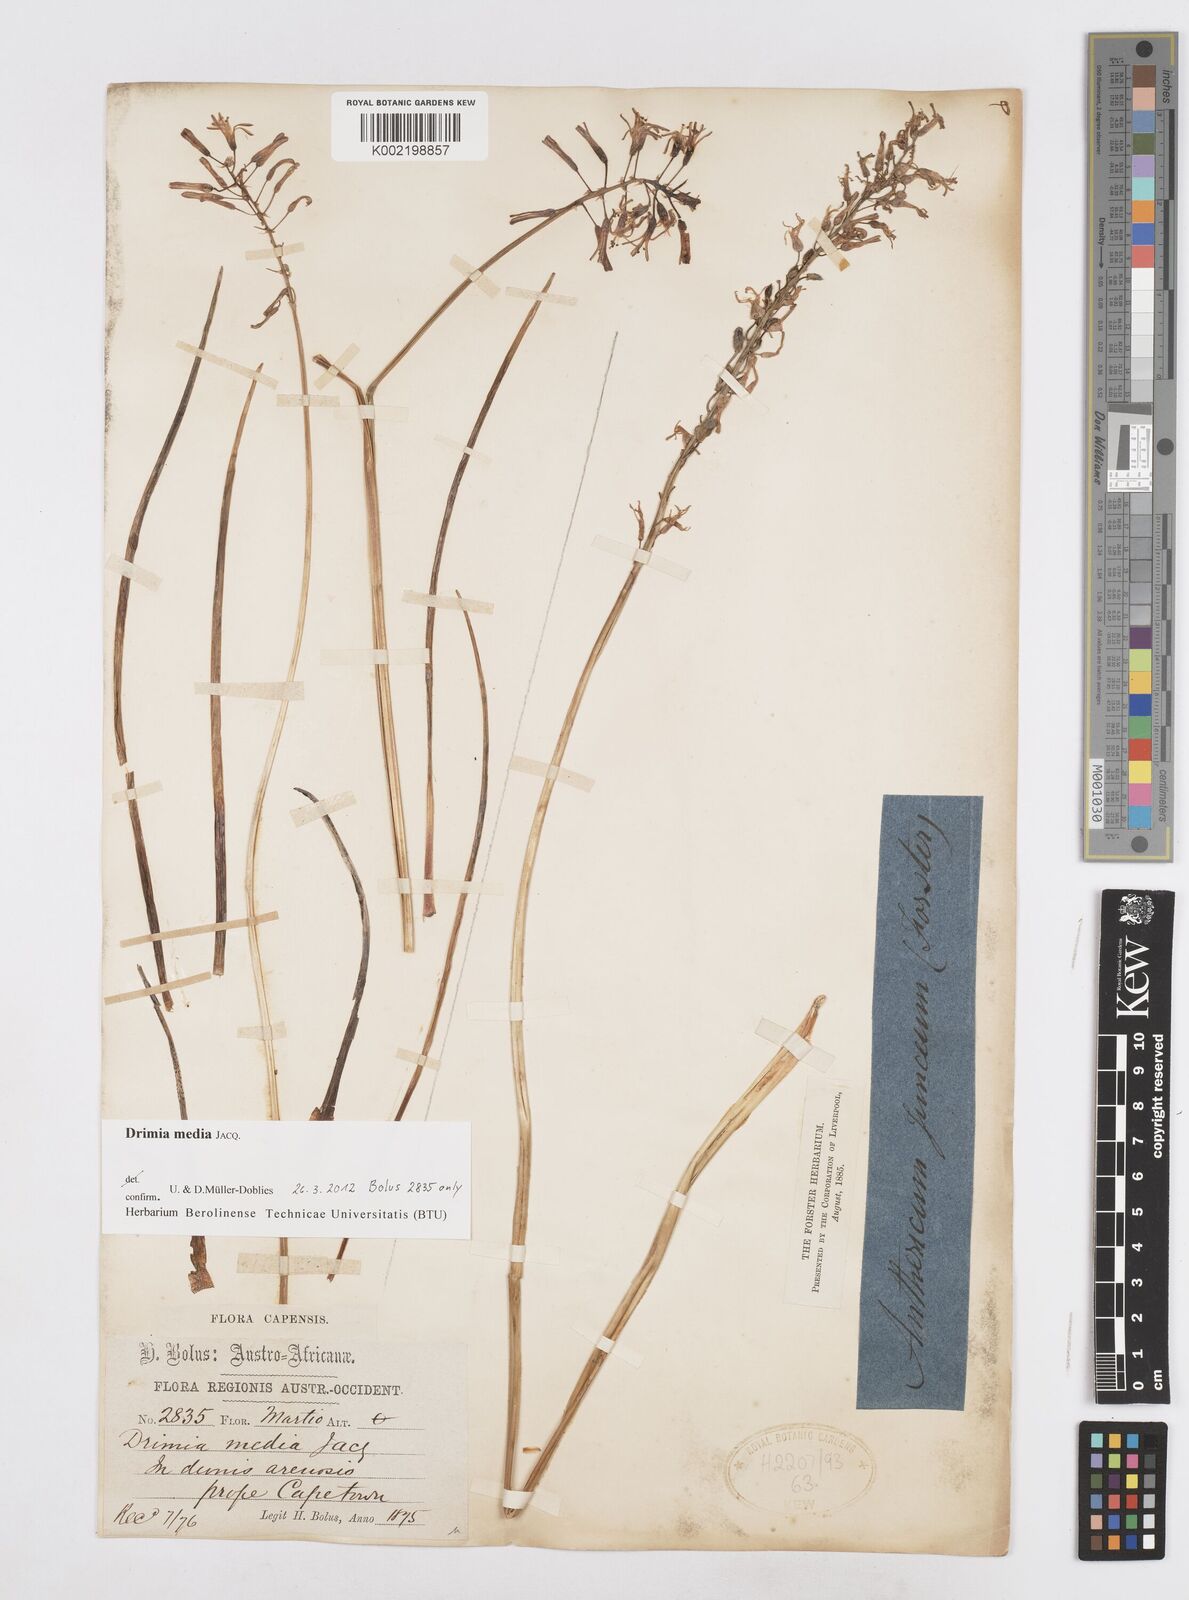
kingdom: Plantae
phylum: Tracheophyta
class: Liliopsida
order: Asparagales
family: Asparagaceae
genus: Drimia
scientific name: Drimia media
